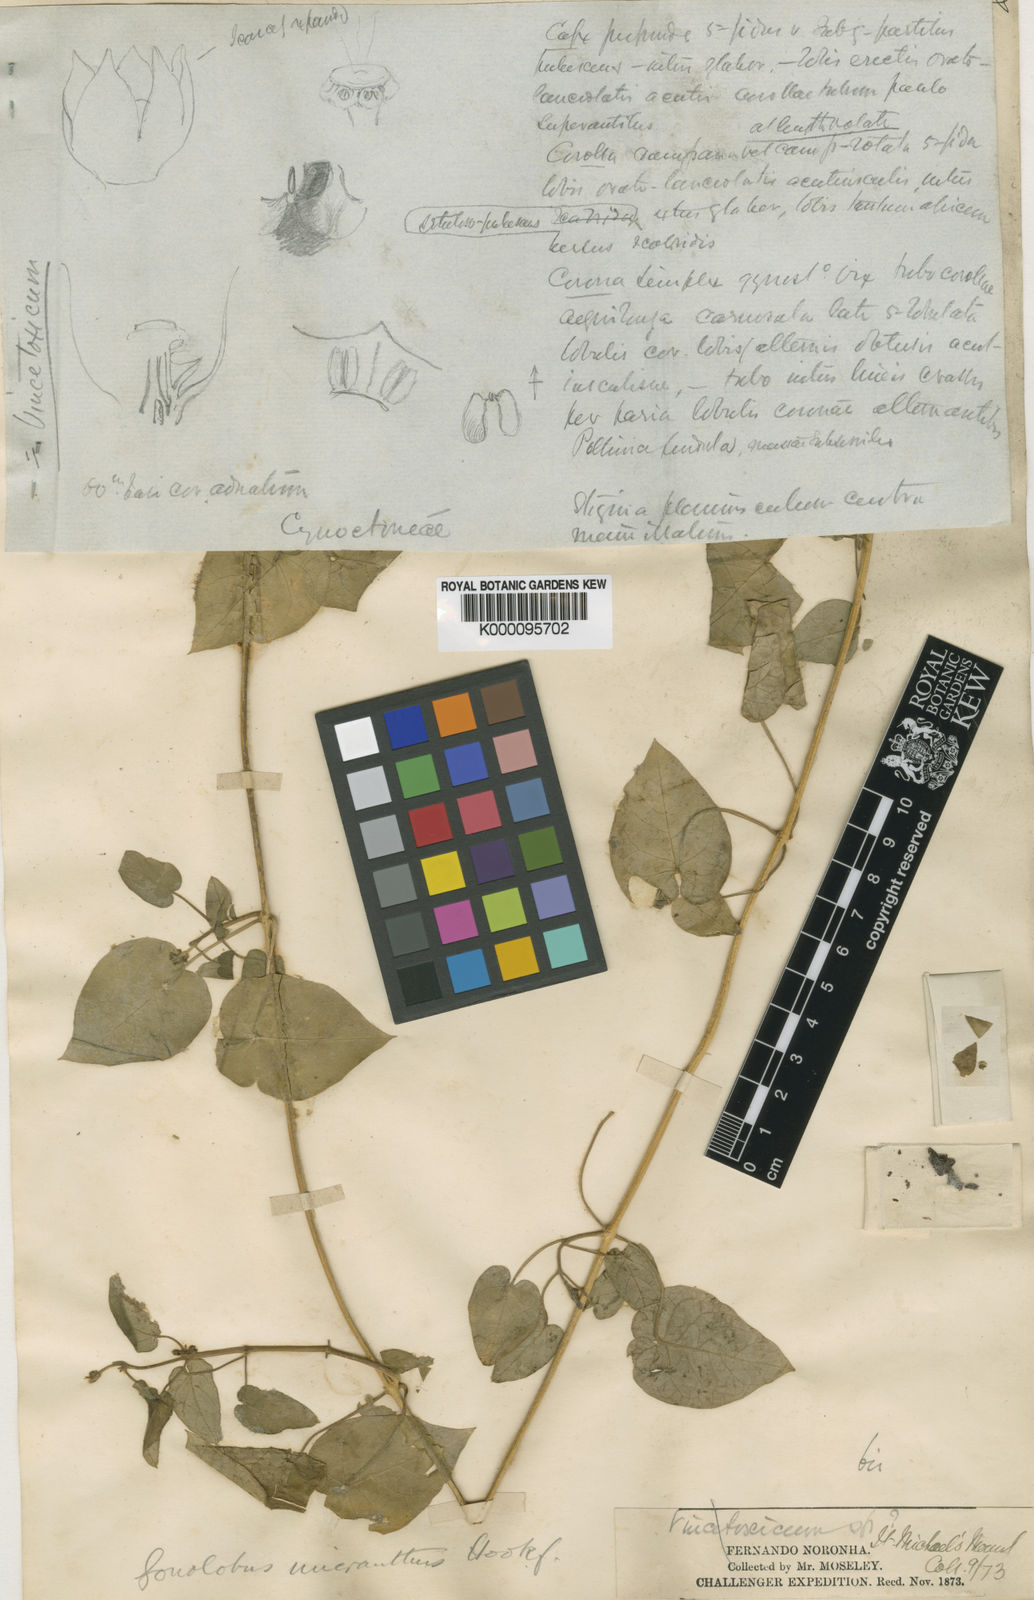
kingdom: Plantae
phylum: Tracheophyta
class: Magnoliopsida
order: Gentianales
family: Apocynaceae
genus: Ibatia
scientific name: Ibatia maritima
